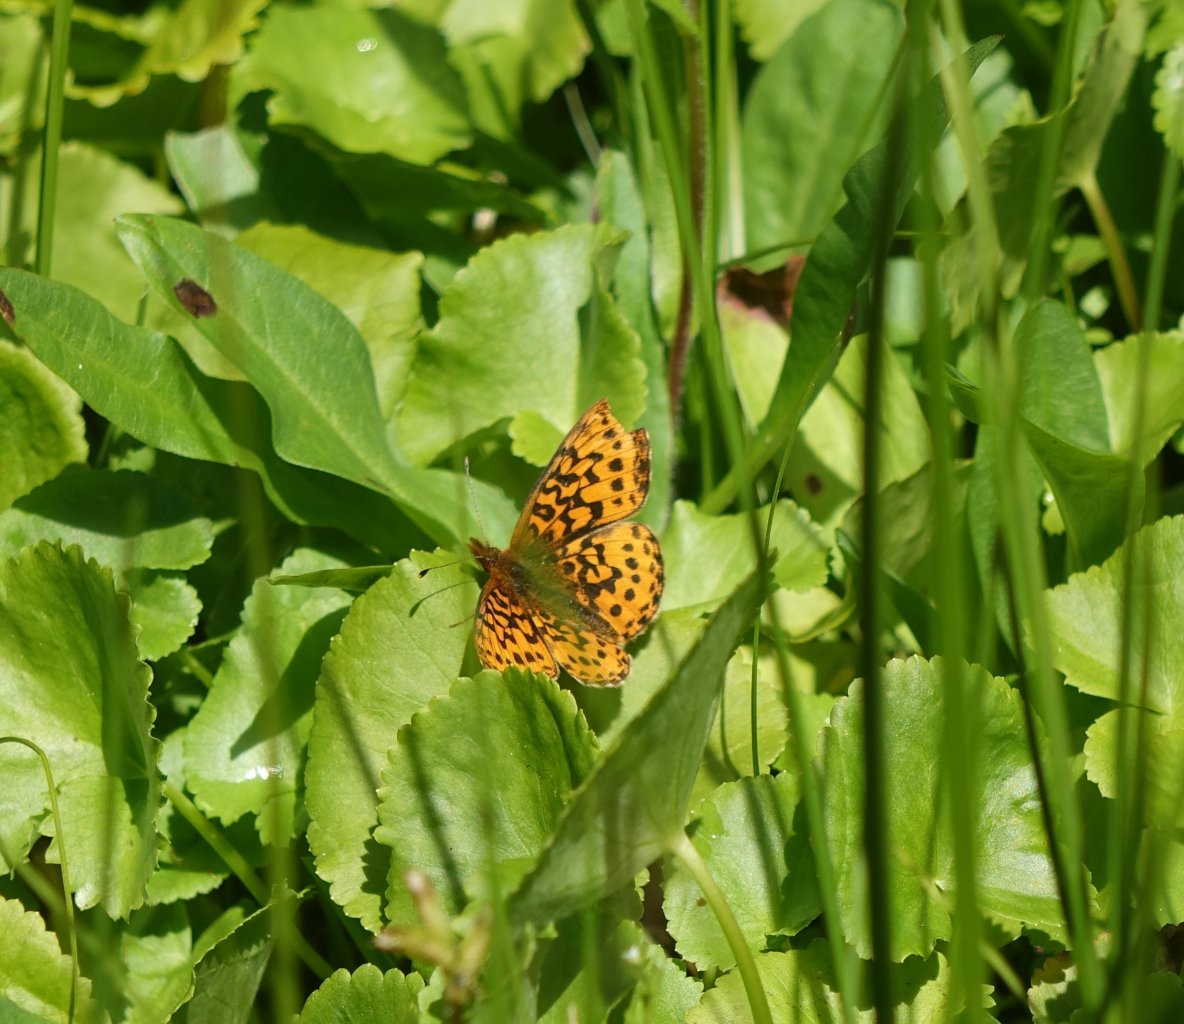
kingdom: Animalia
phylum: Arthropoda
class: Insecta
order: Lepidoptera
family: Nymphalidae
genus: Boloria
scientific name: Boloria epithore
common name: Pacific Fritillary
